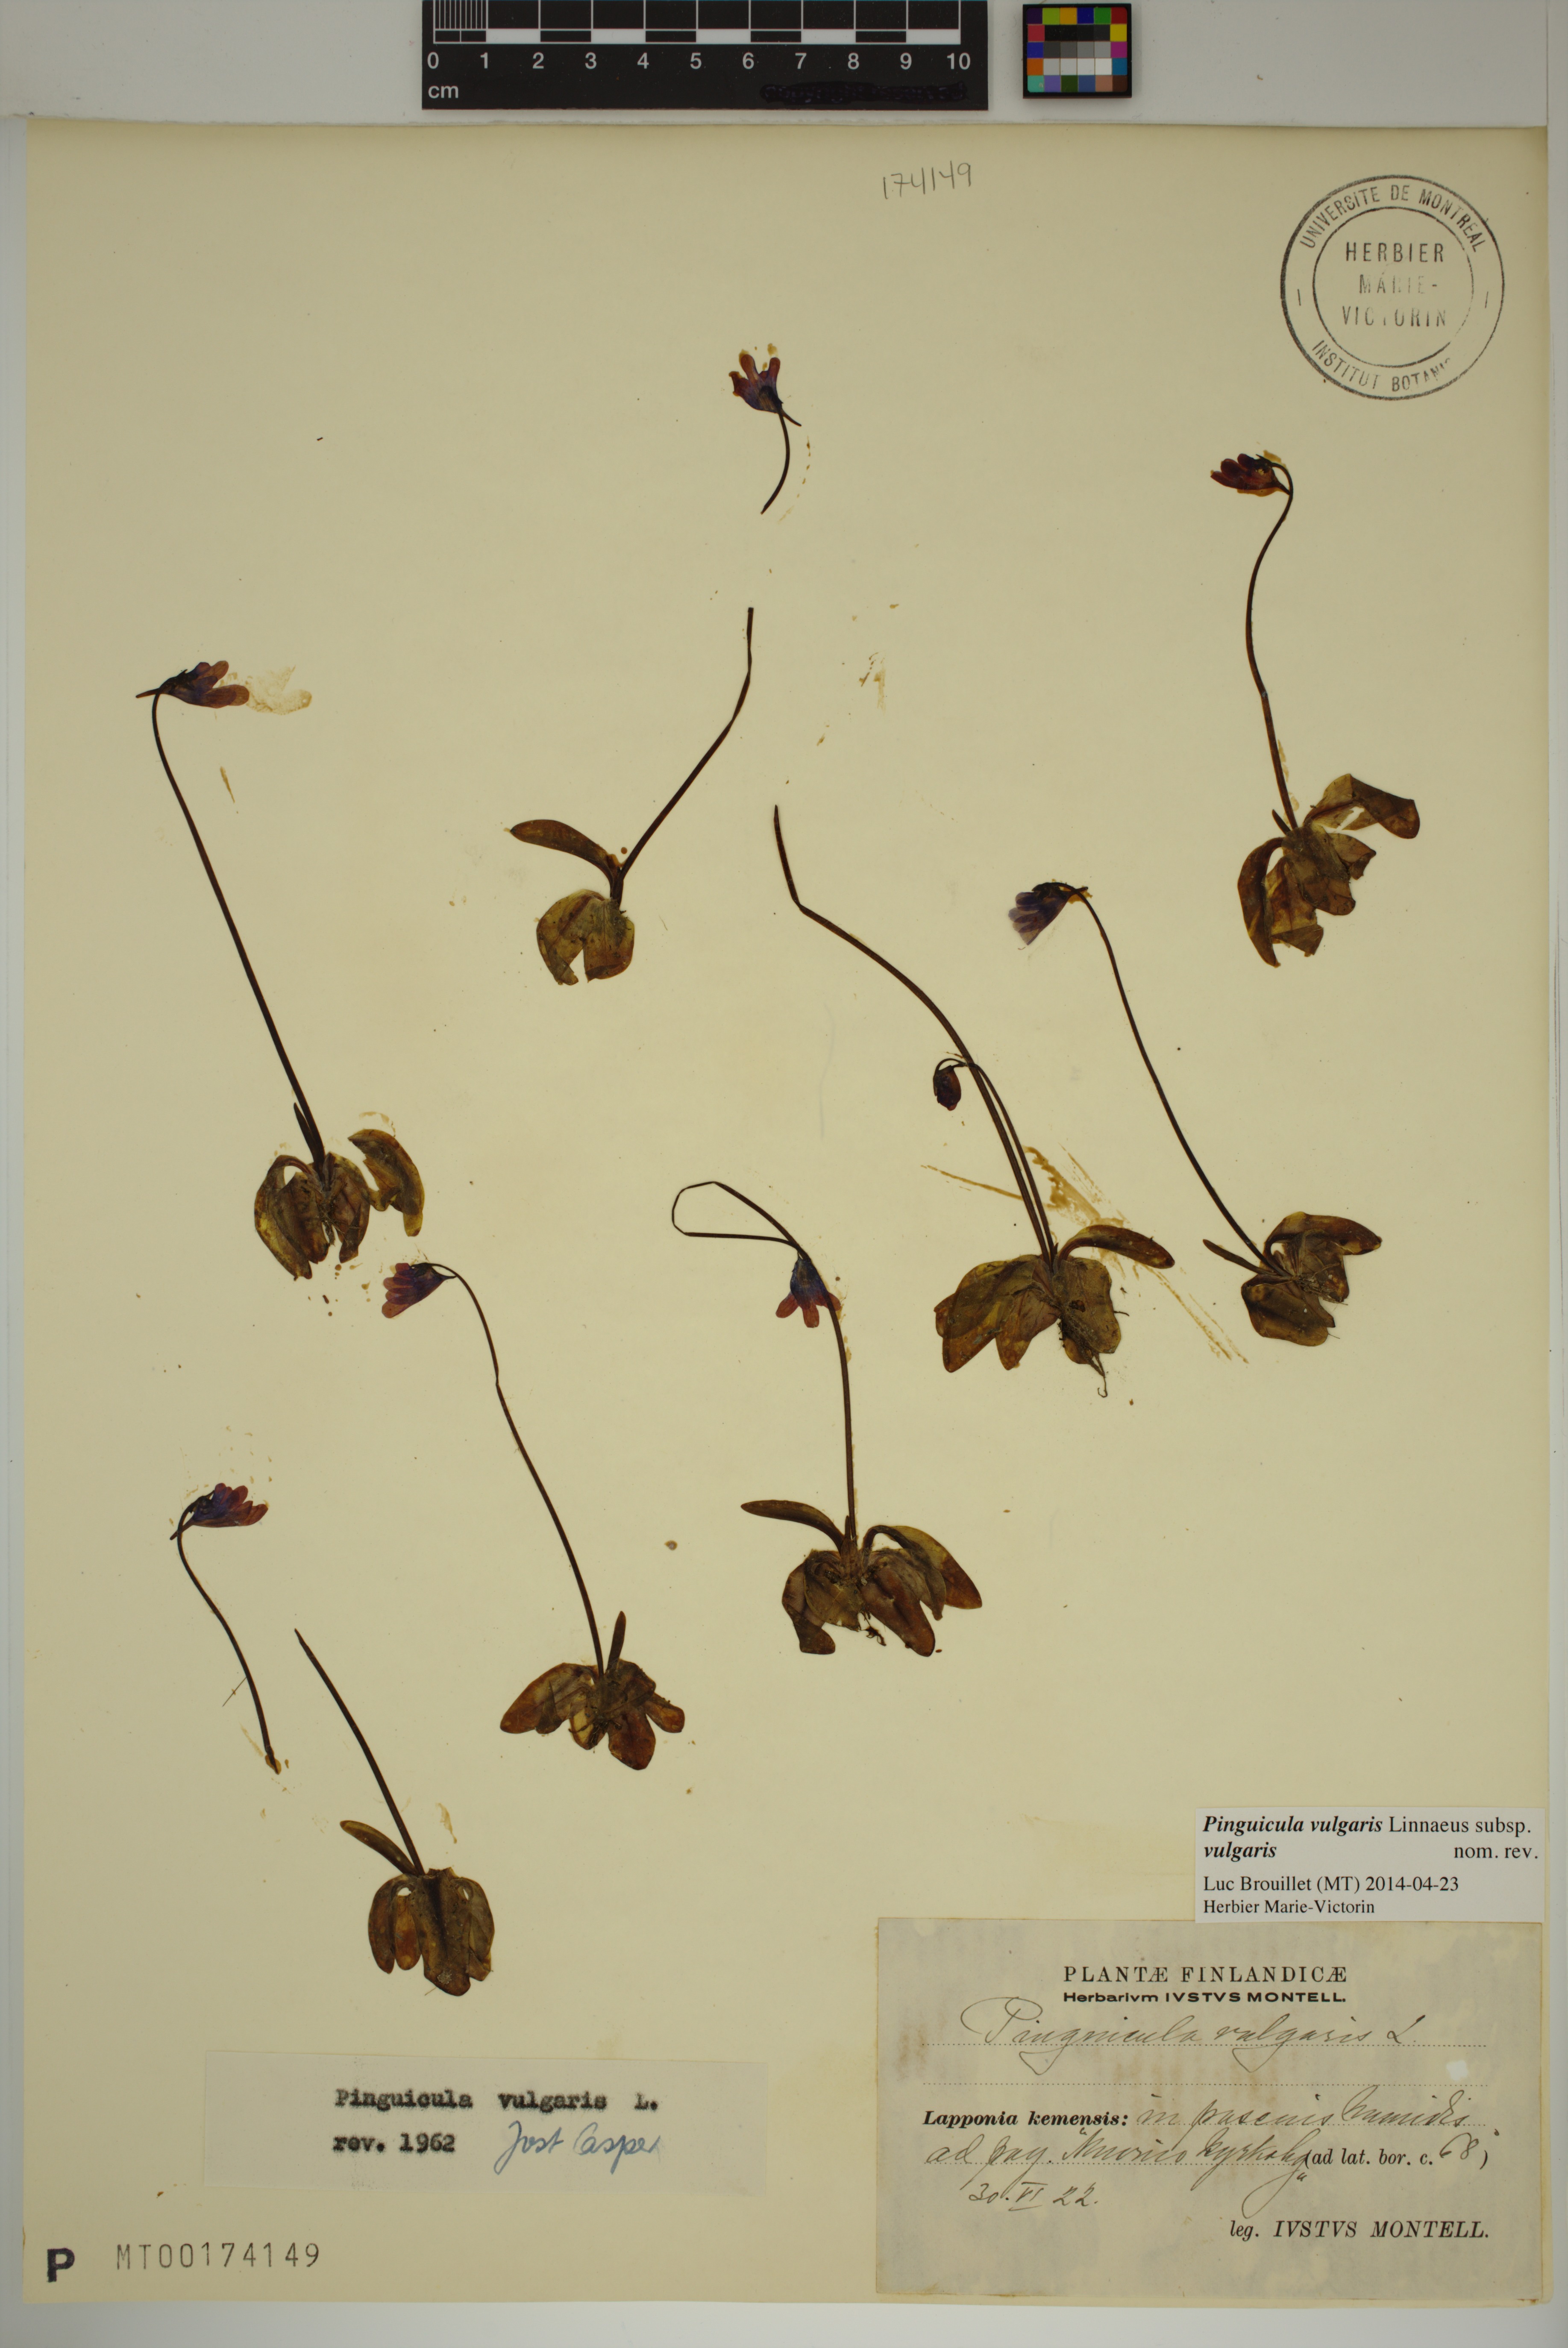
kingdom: Plantae
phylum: Tracheophyta
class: Magnoliopsida
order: Lamiales
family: Lentibulariaceae
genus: Pinguicula
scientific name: Pinguicula vulgaris
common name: Common butterwort
